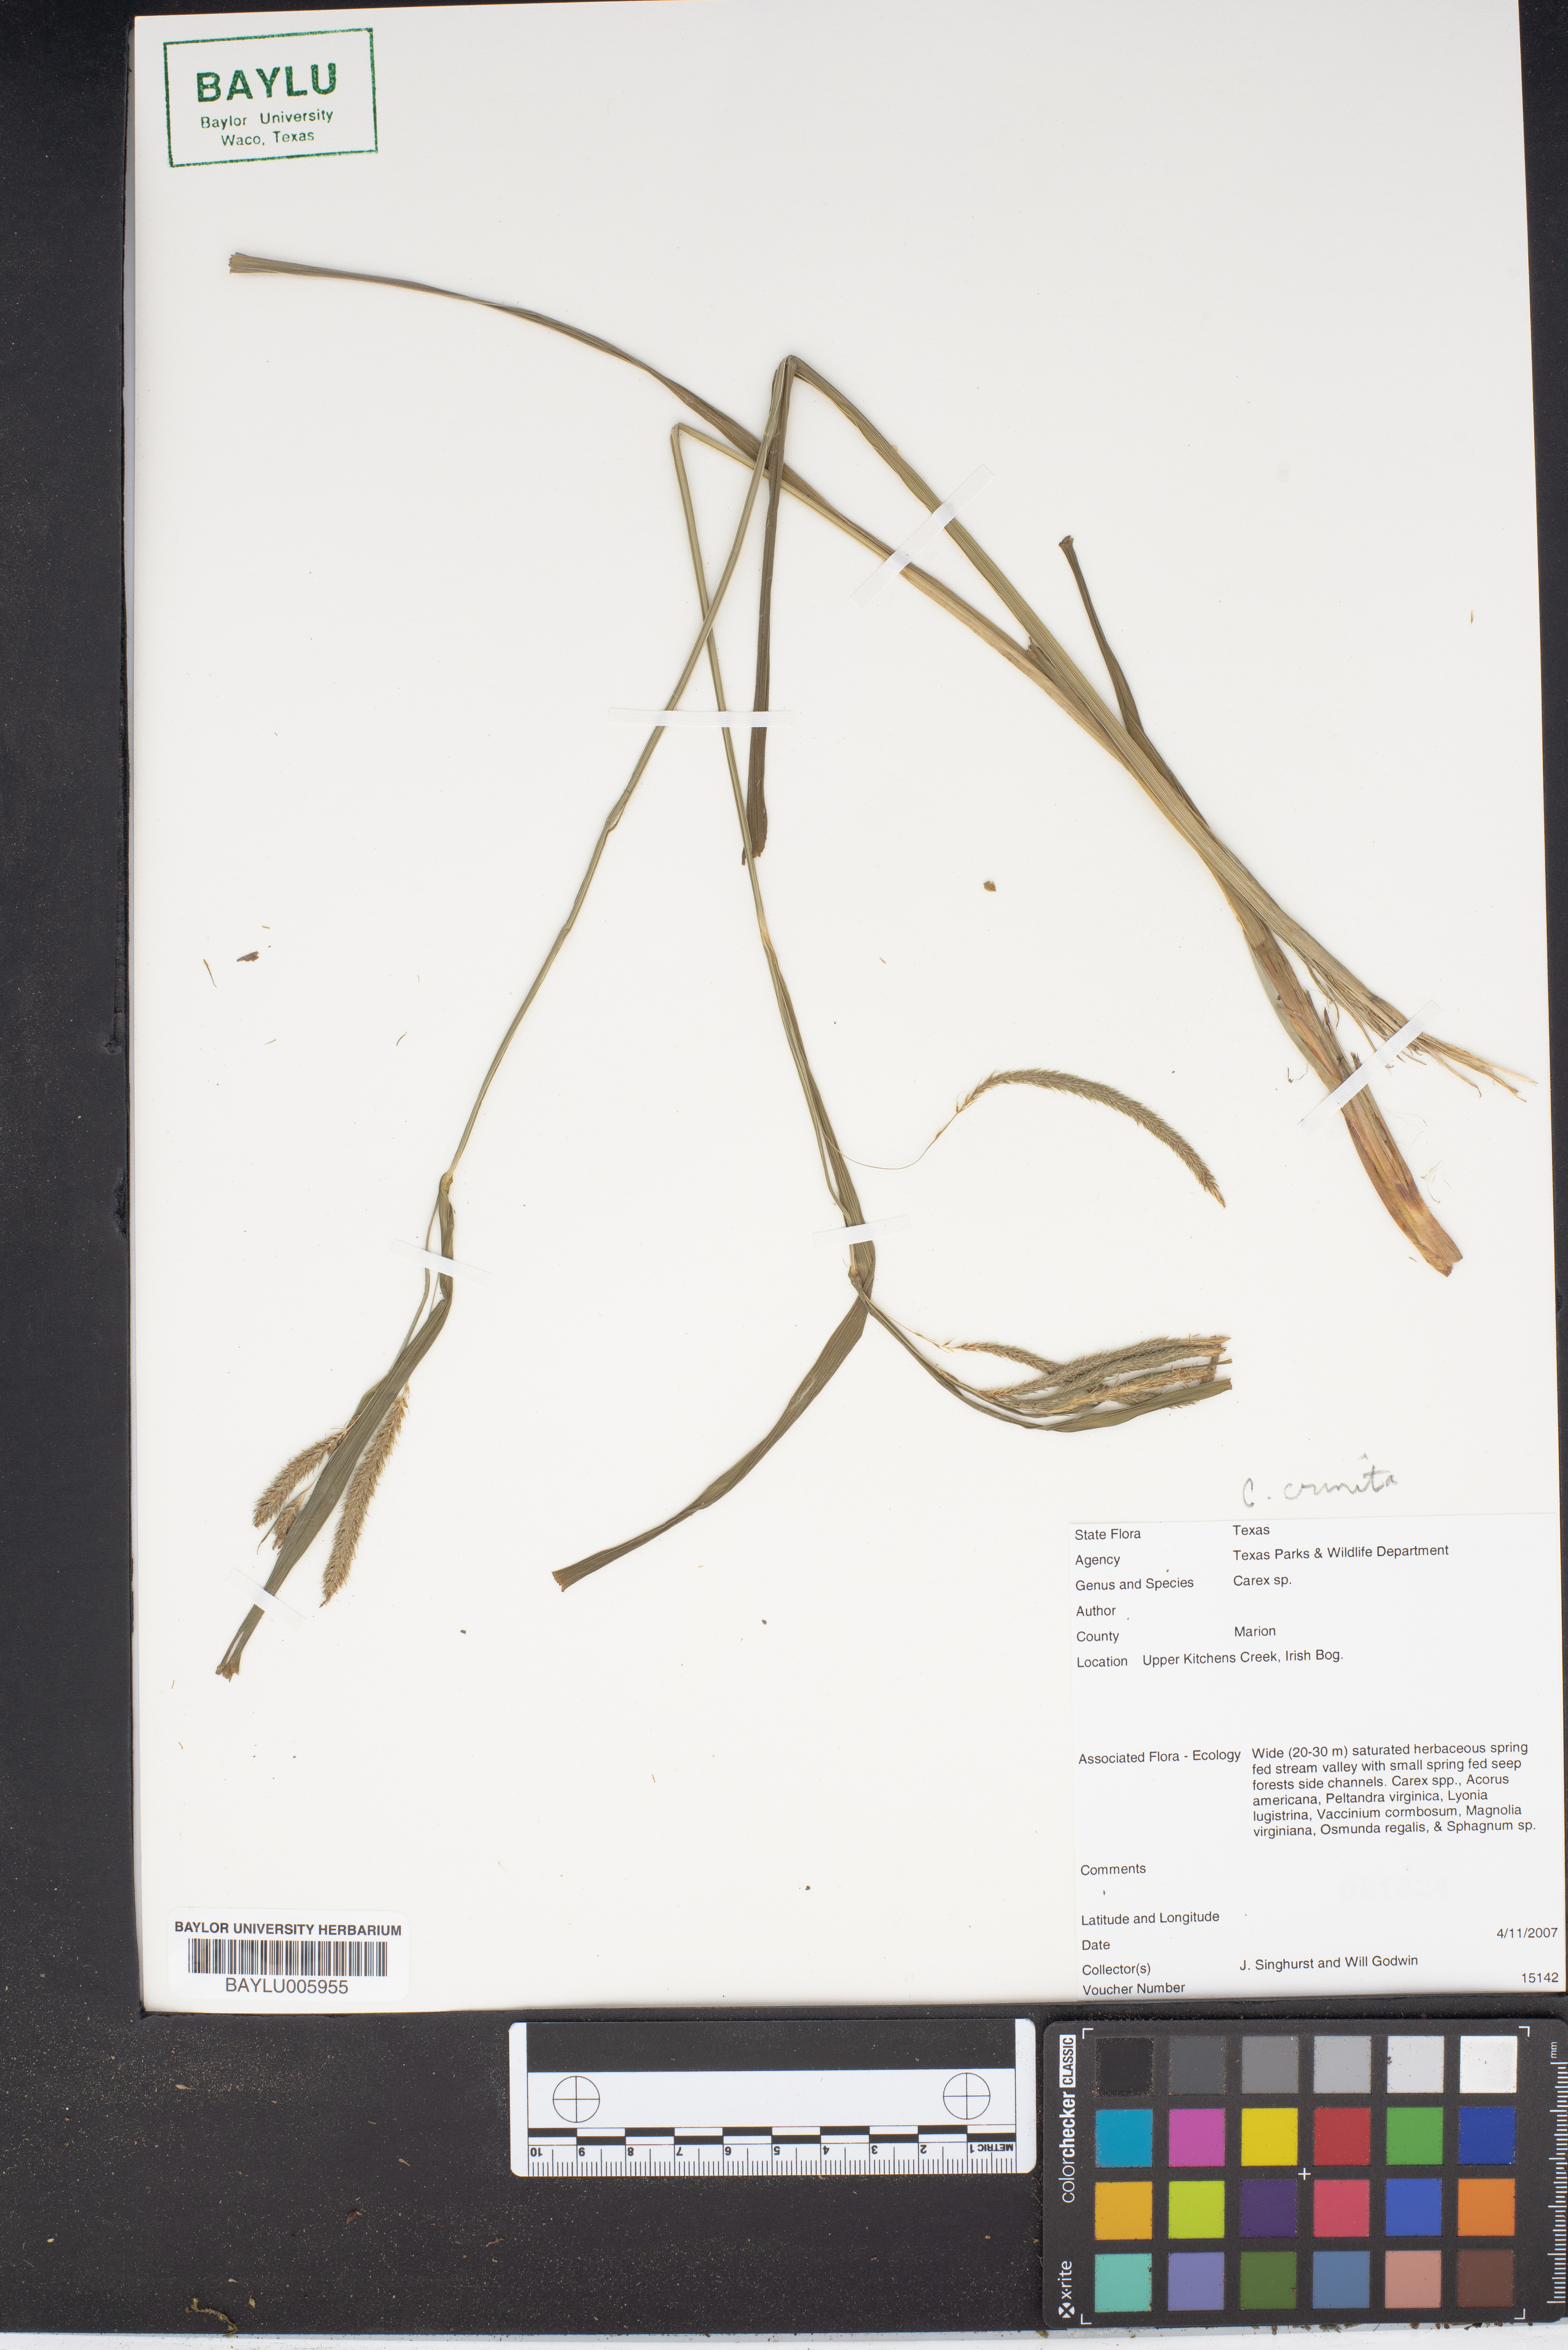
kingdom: Plantae
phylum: Tracheophyta
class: Liliopsida
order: Poales
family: Cyperaceae
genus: Carex
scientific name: Carex
